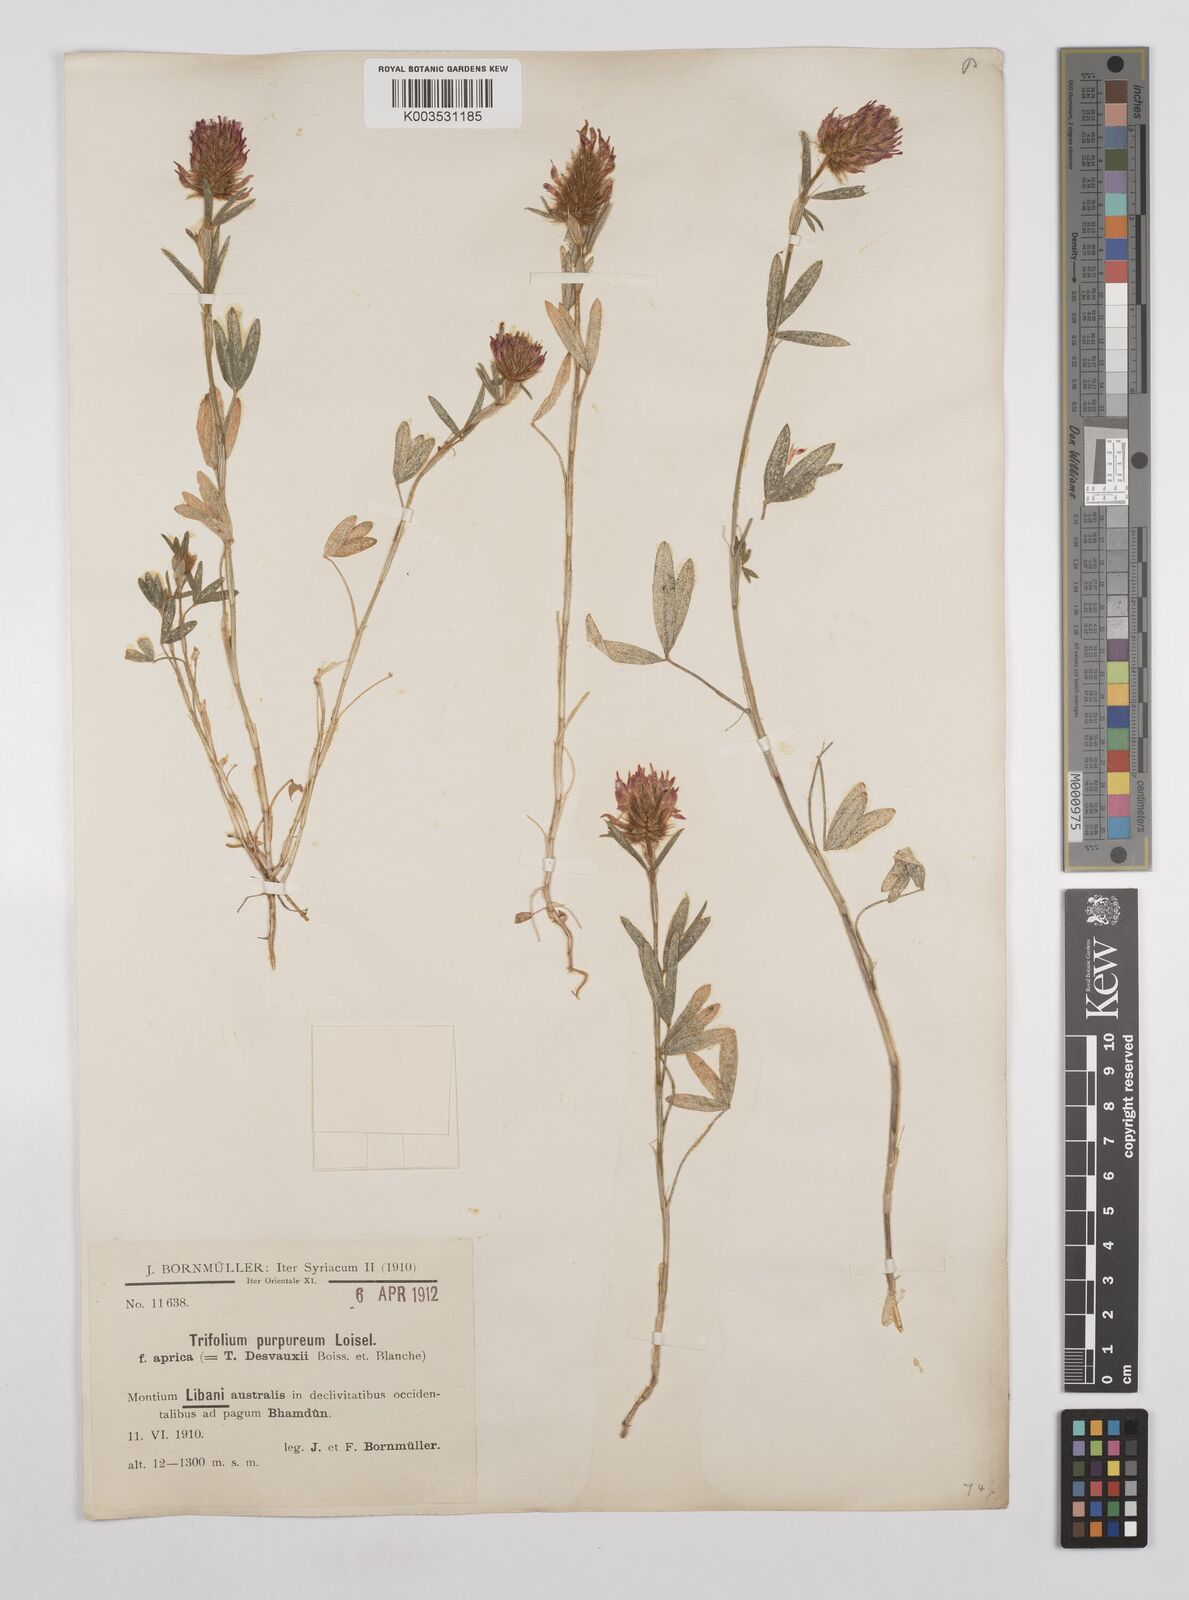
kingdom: Plantae
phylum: Tracheophyta
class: Magnoliopsida
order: Fabales
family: Fabaceae
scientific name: Fabaceae
